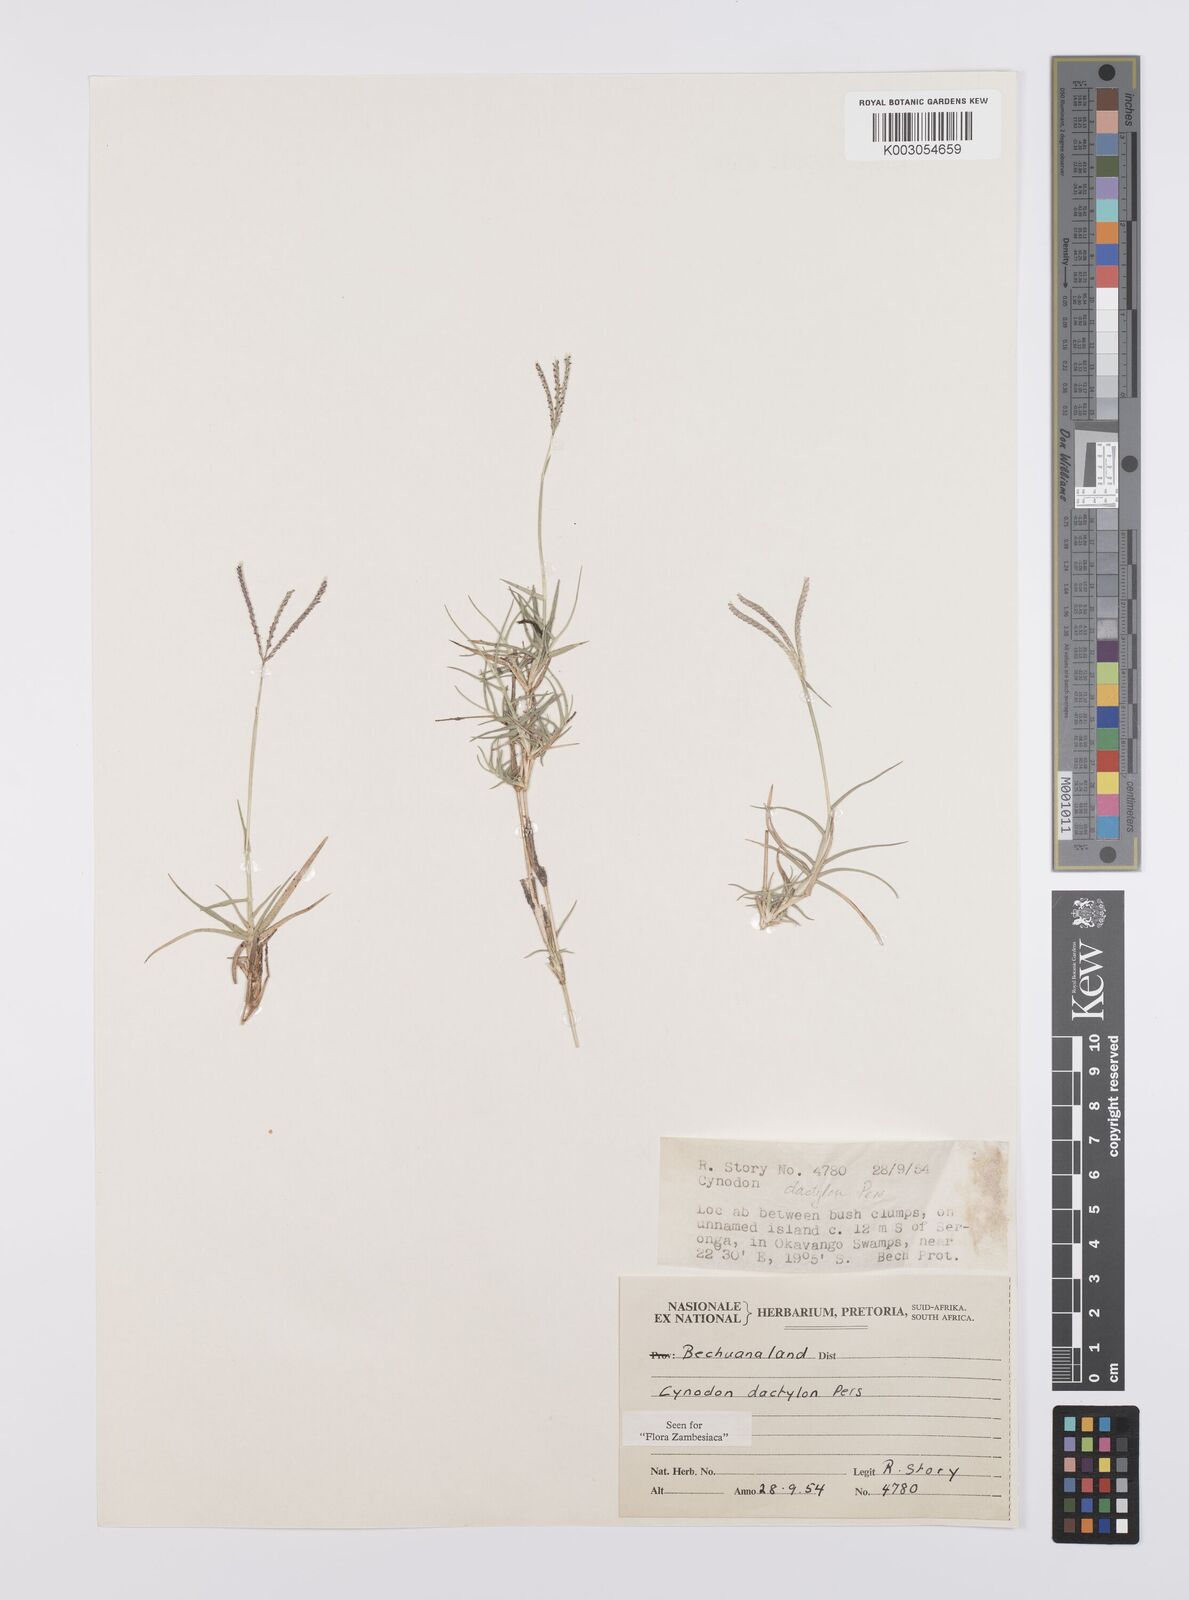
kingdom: Plantae
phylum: Tracheophyta
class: Liliopsida
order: Poales
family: Poaceae
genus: Cynodon
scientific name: Cynodon dactylon
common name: Bermuda grass
